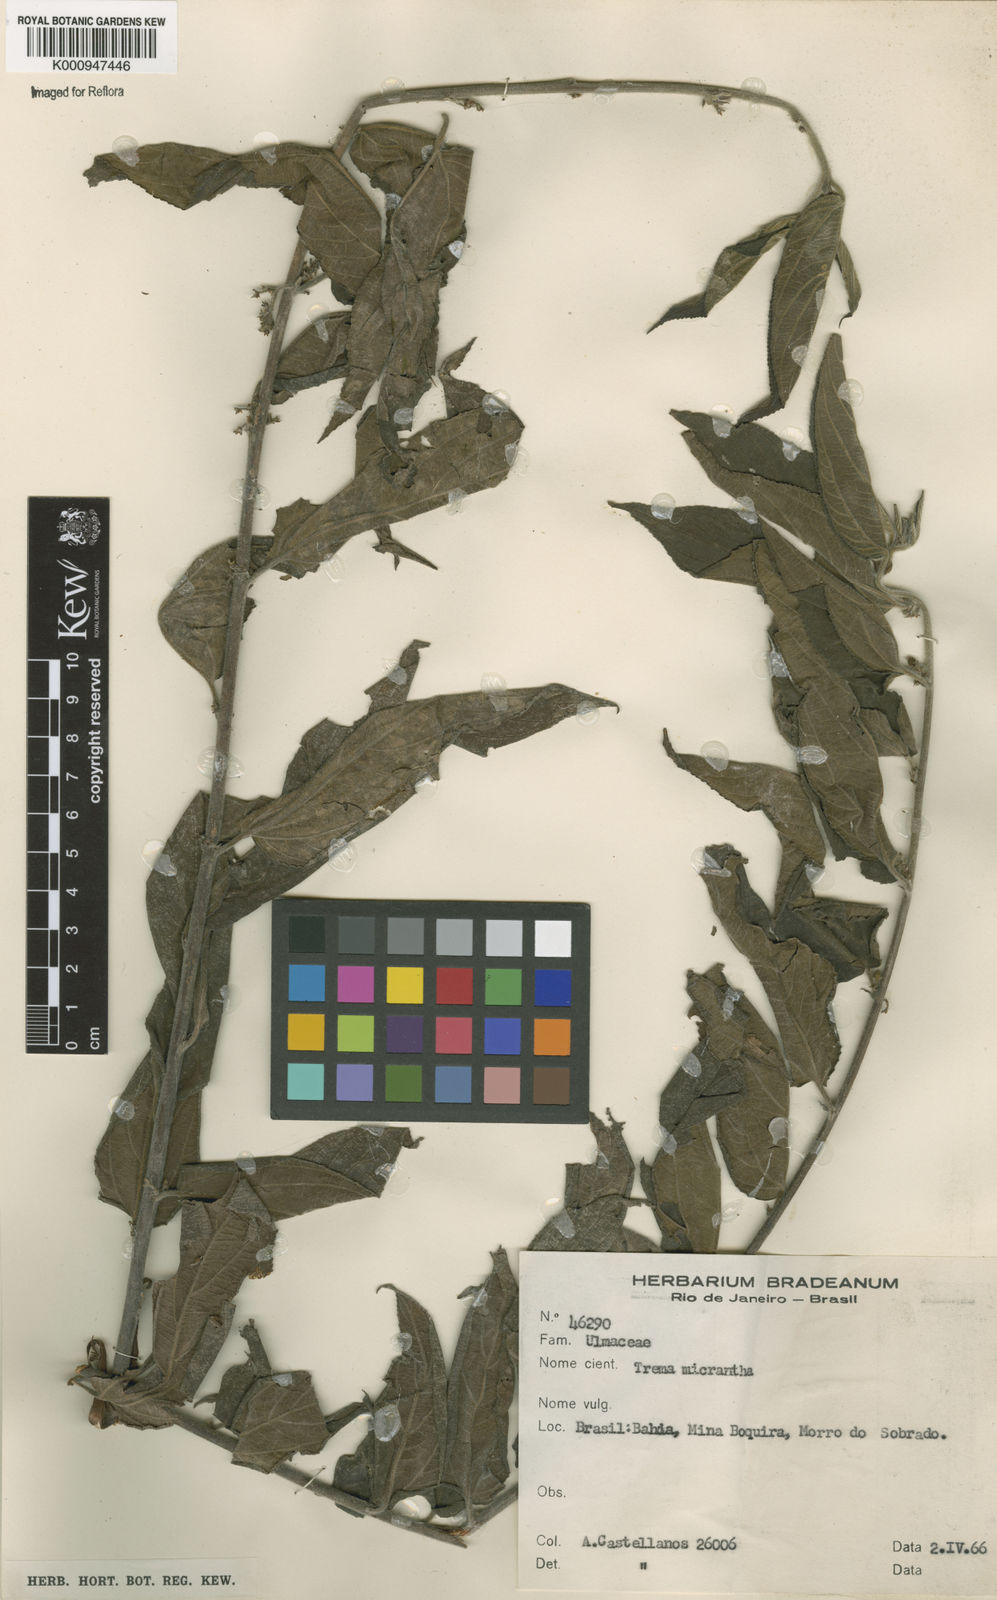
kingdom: Plantae
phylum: Tracheophyta
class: Magnoliopsida
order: Rosales
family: Cannabaceae
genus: Trema
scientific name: Trema micranthum
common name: Jamaican nettletree
